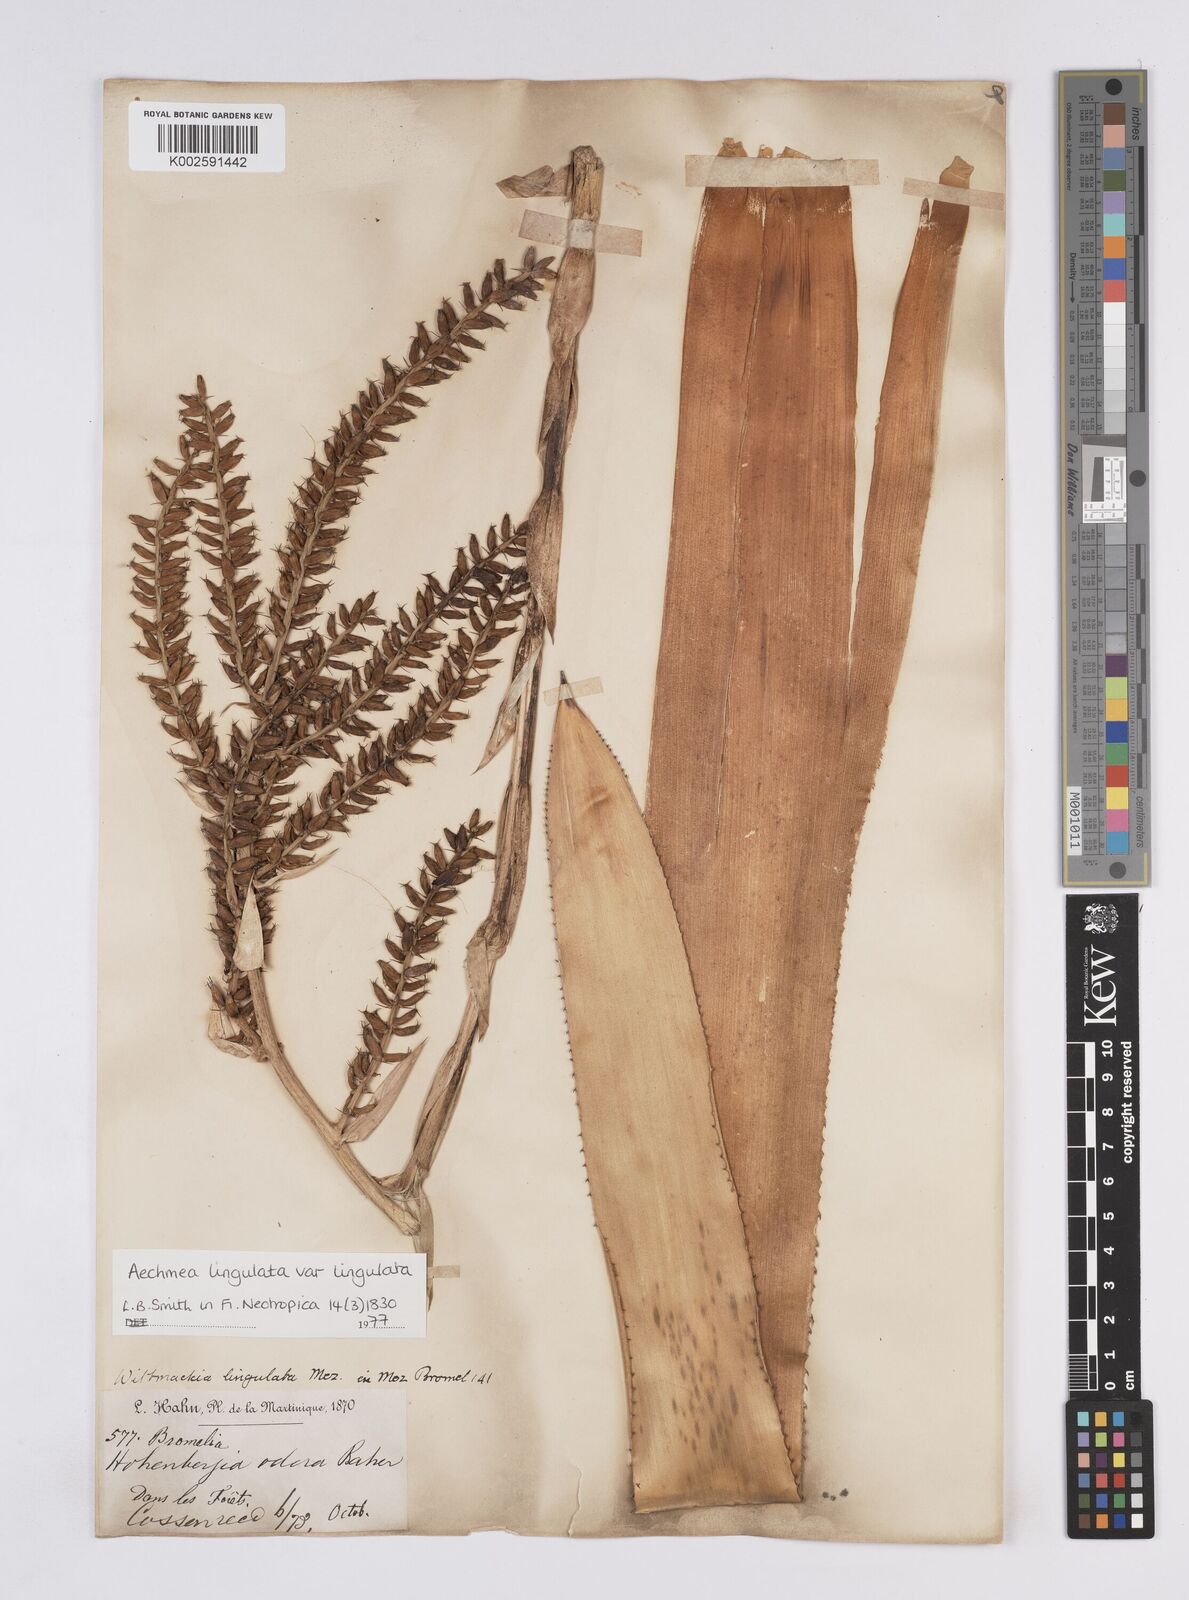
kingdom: Plantae
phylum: Tracheophyta
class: Liliopsida
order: Poales
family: Bromeliaceae
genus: Wittmackia
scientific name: Wittmackia lingulata
